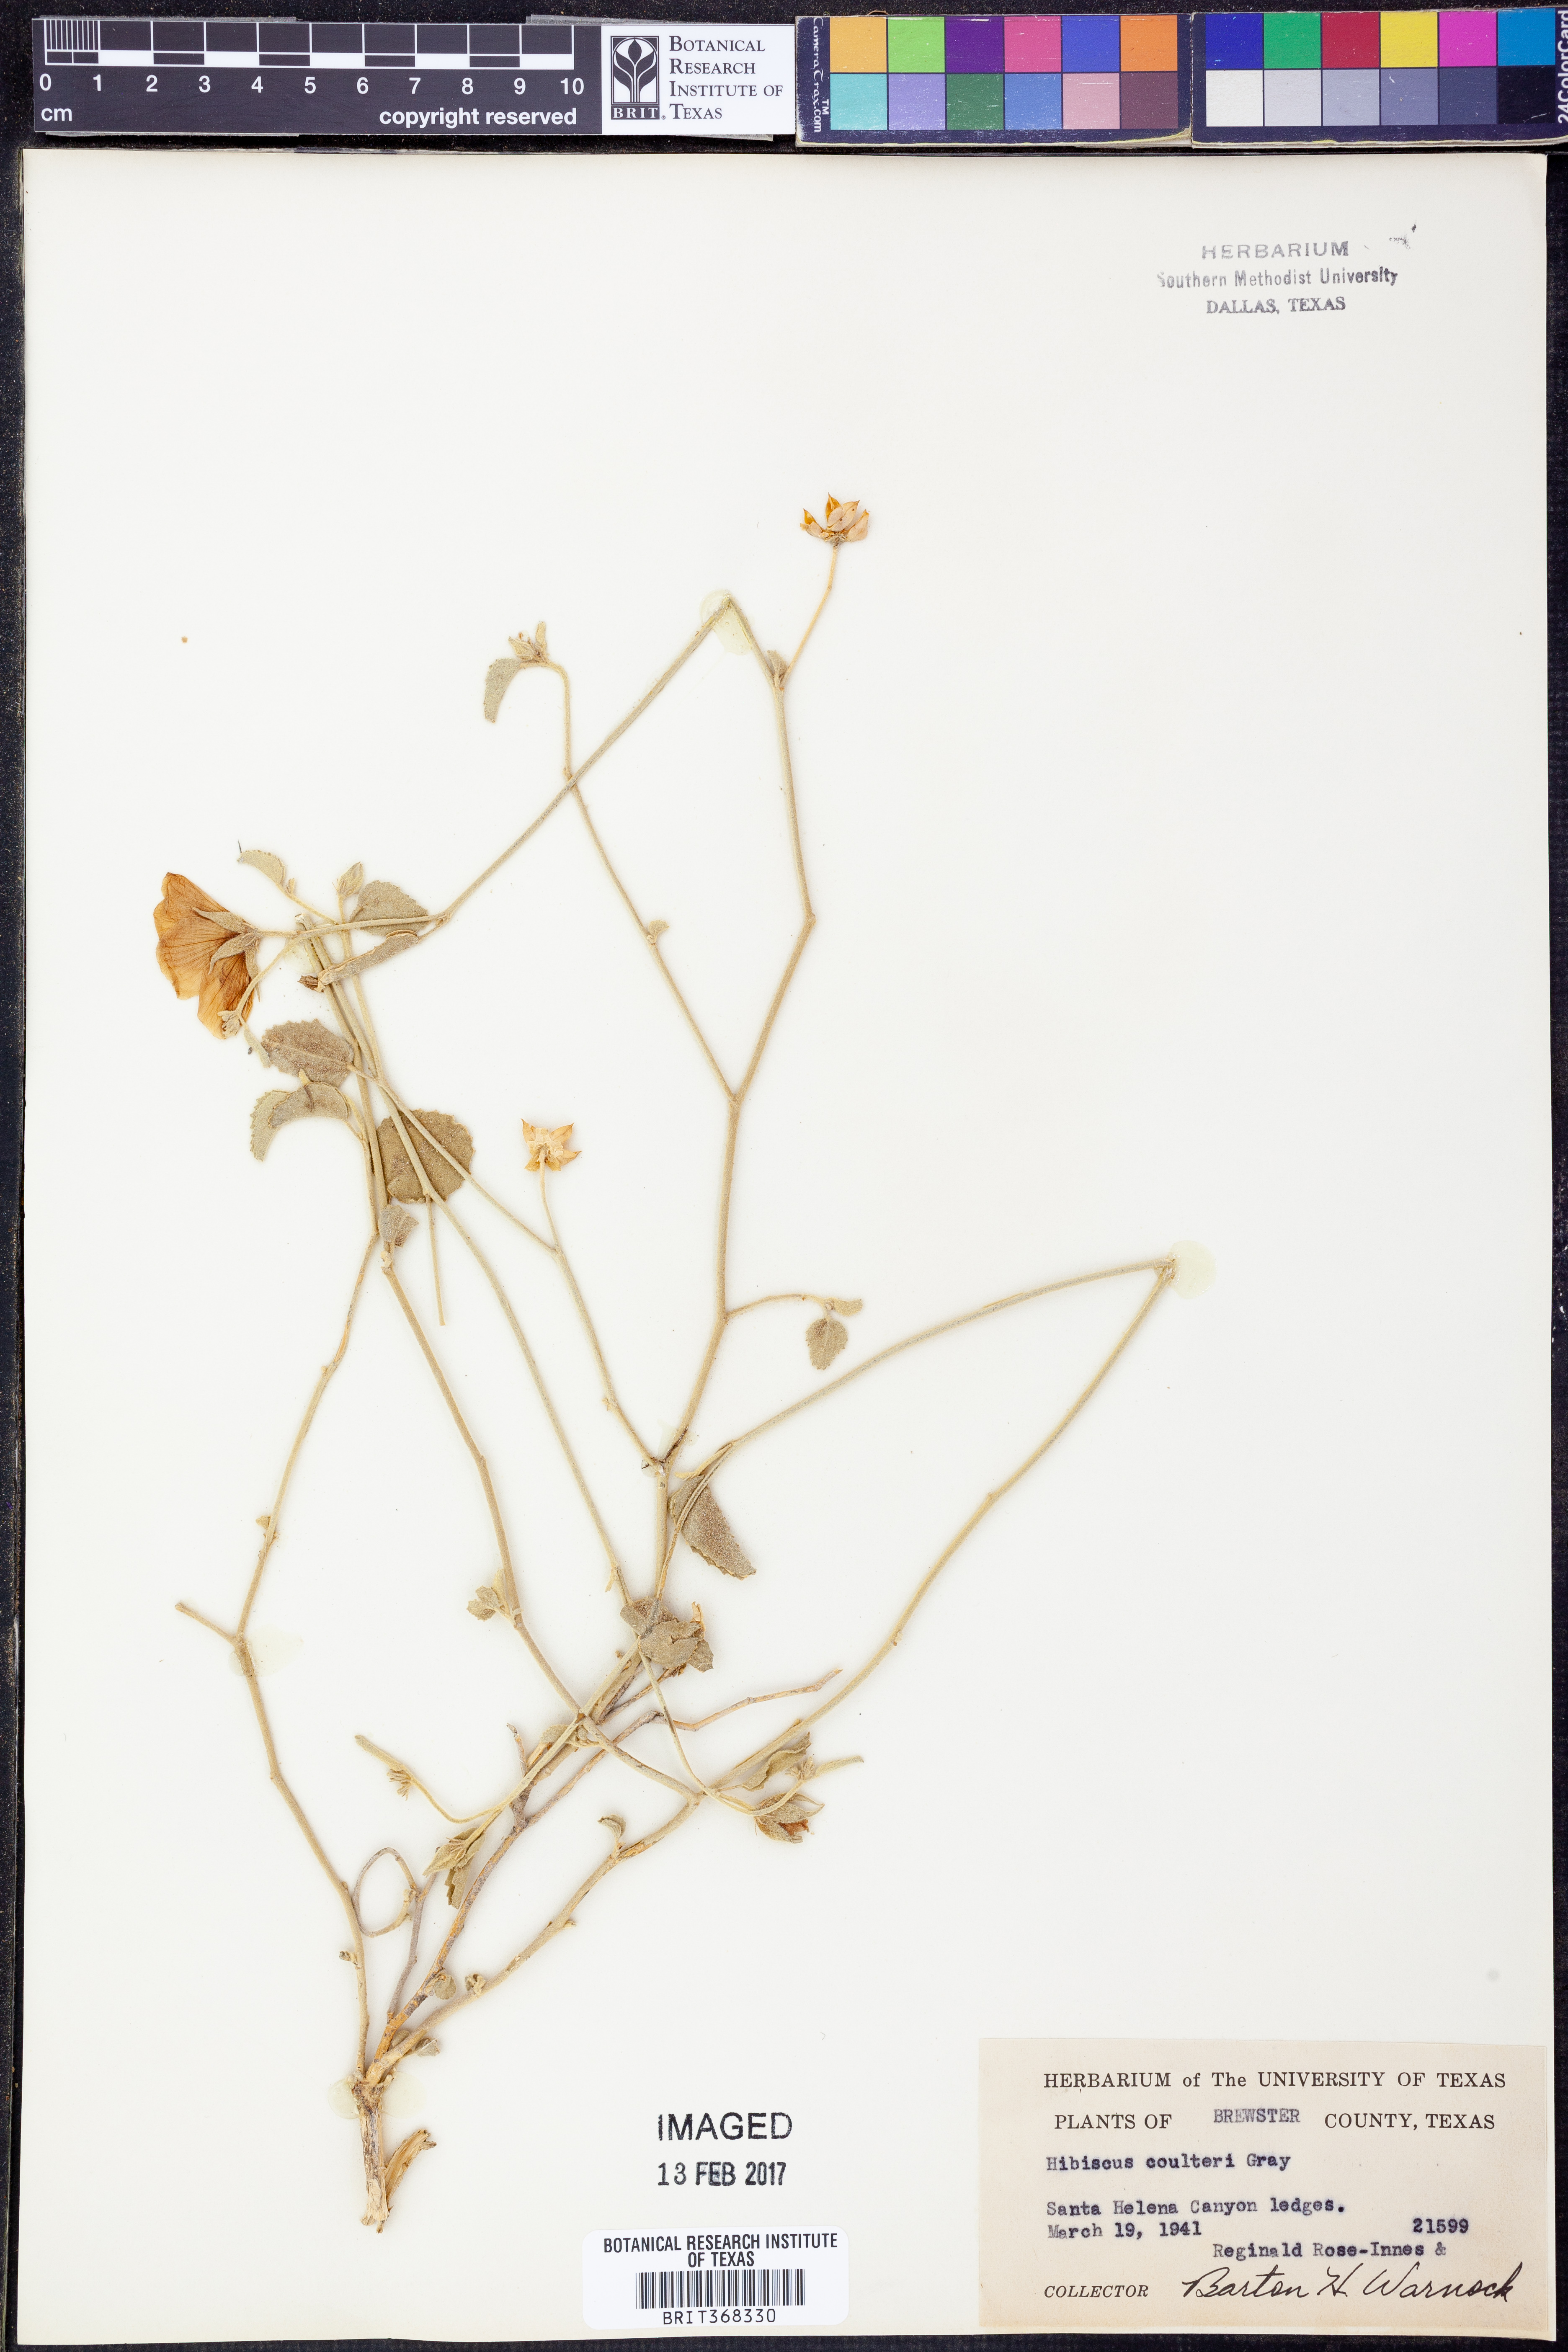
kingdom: Plantae
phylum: Tracheophyta
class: Magnoliopsida
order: Malvales
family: Malvaceae
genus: Hibiscus
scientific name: Hibiscus coulteri
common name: Desert rose-mallow
